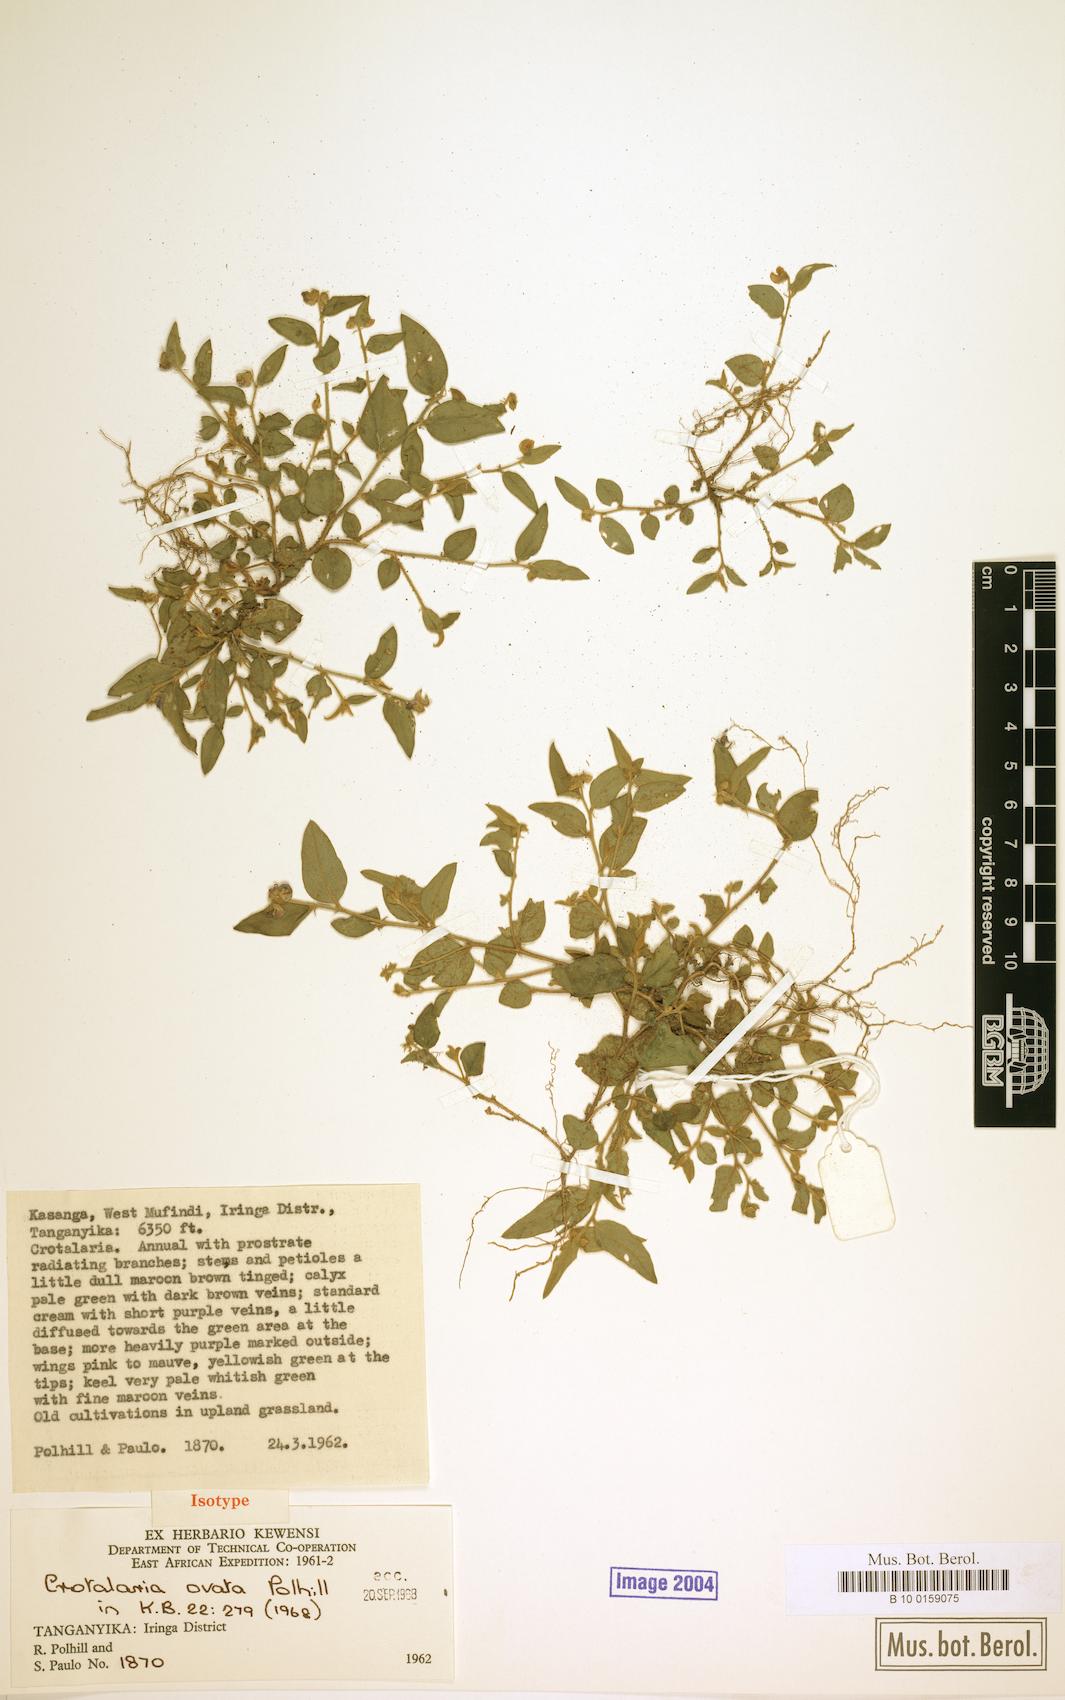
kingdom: Plantae
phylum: Tracheophyta
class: Magnoliopsida
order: Fabales
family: Fabaceae
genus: Crotalaria
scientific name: Crotalaria ovata
